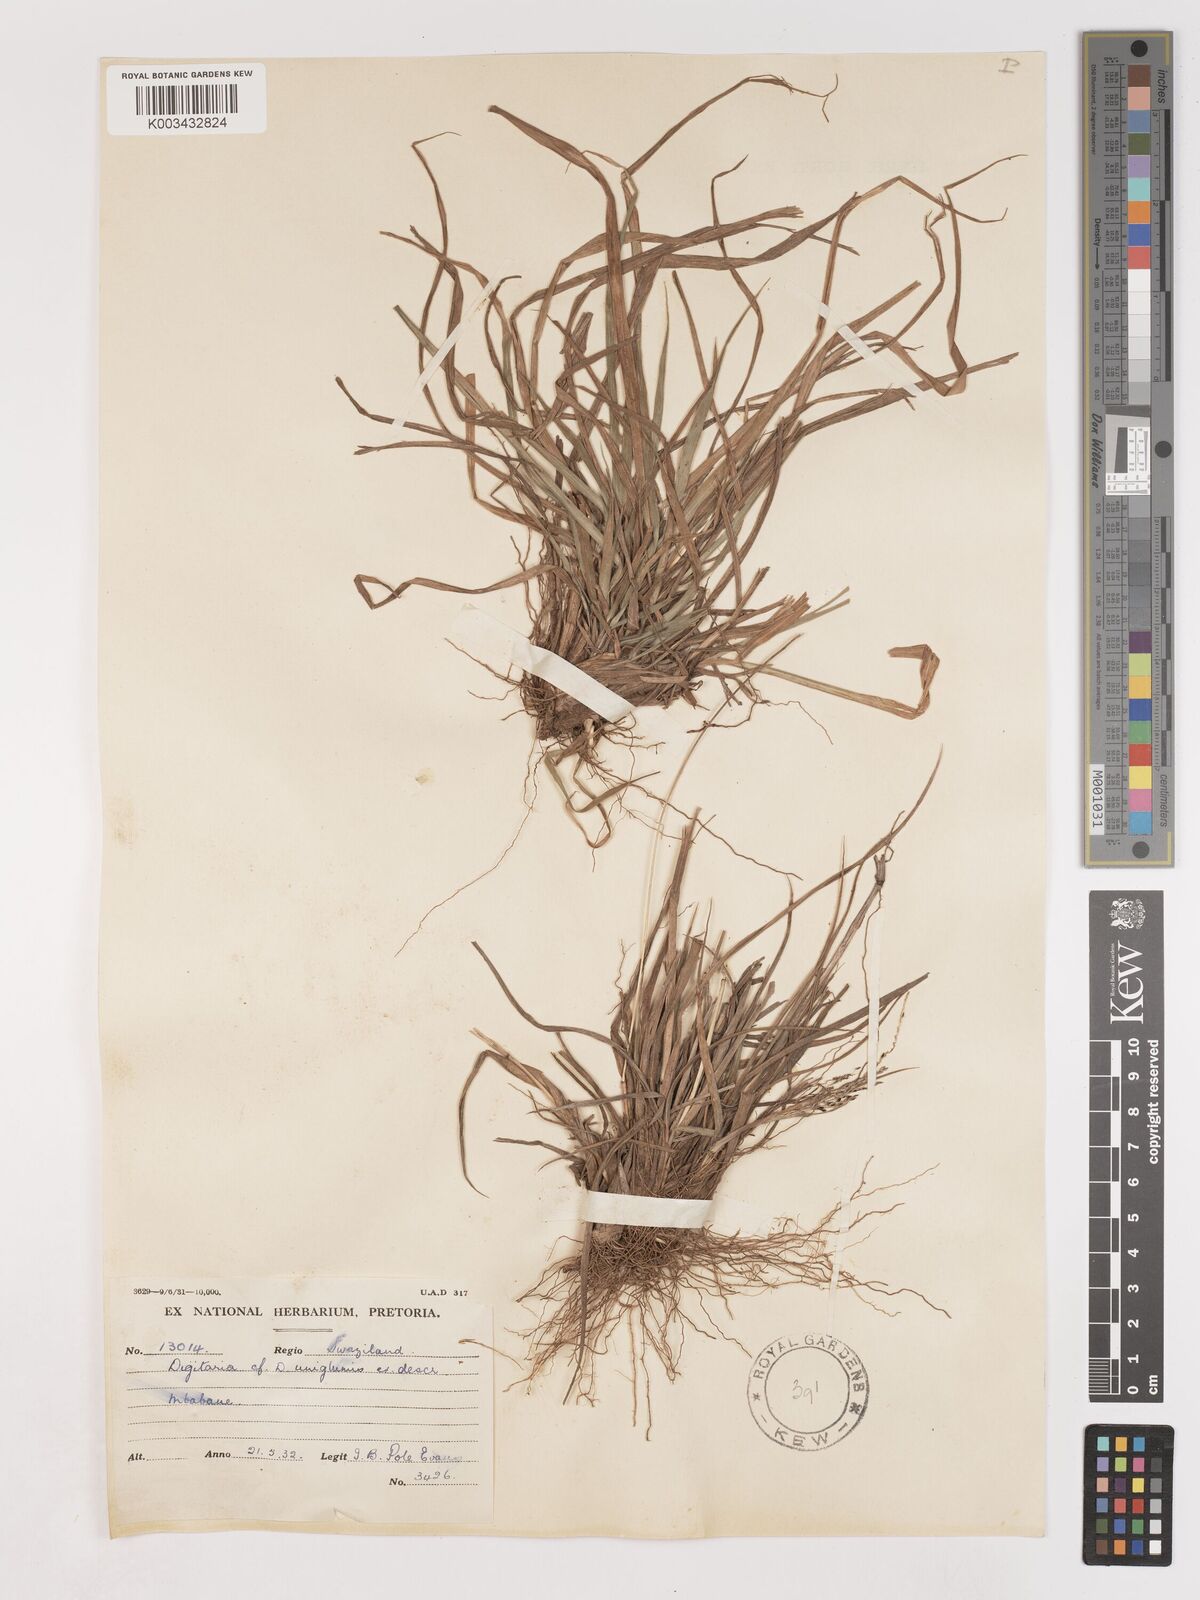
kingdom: Plantae
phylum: Tracheophyta
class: Liliopsida
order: Poales
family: Poaceae
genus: Digitaria
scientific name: Digitaria maitlandii
